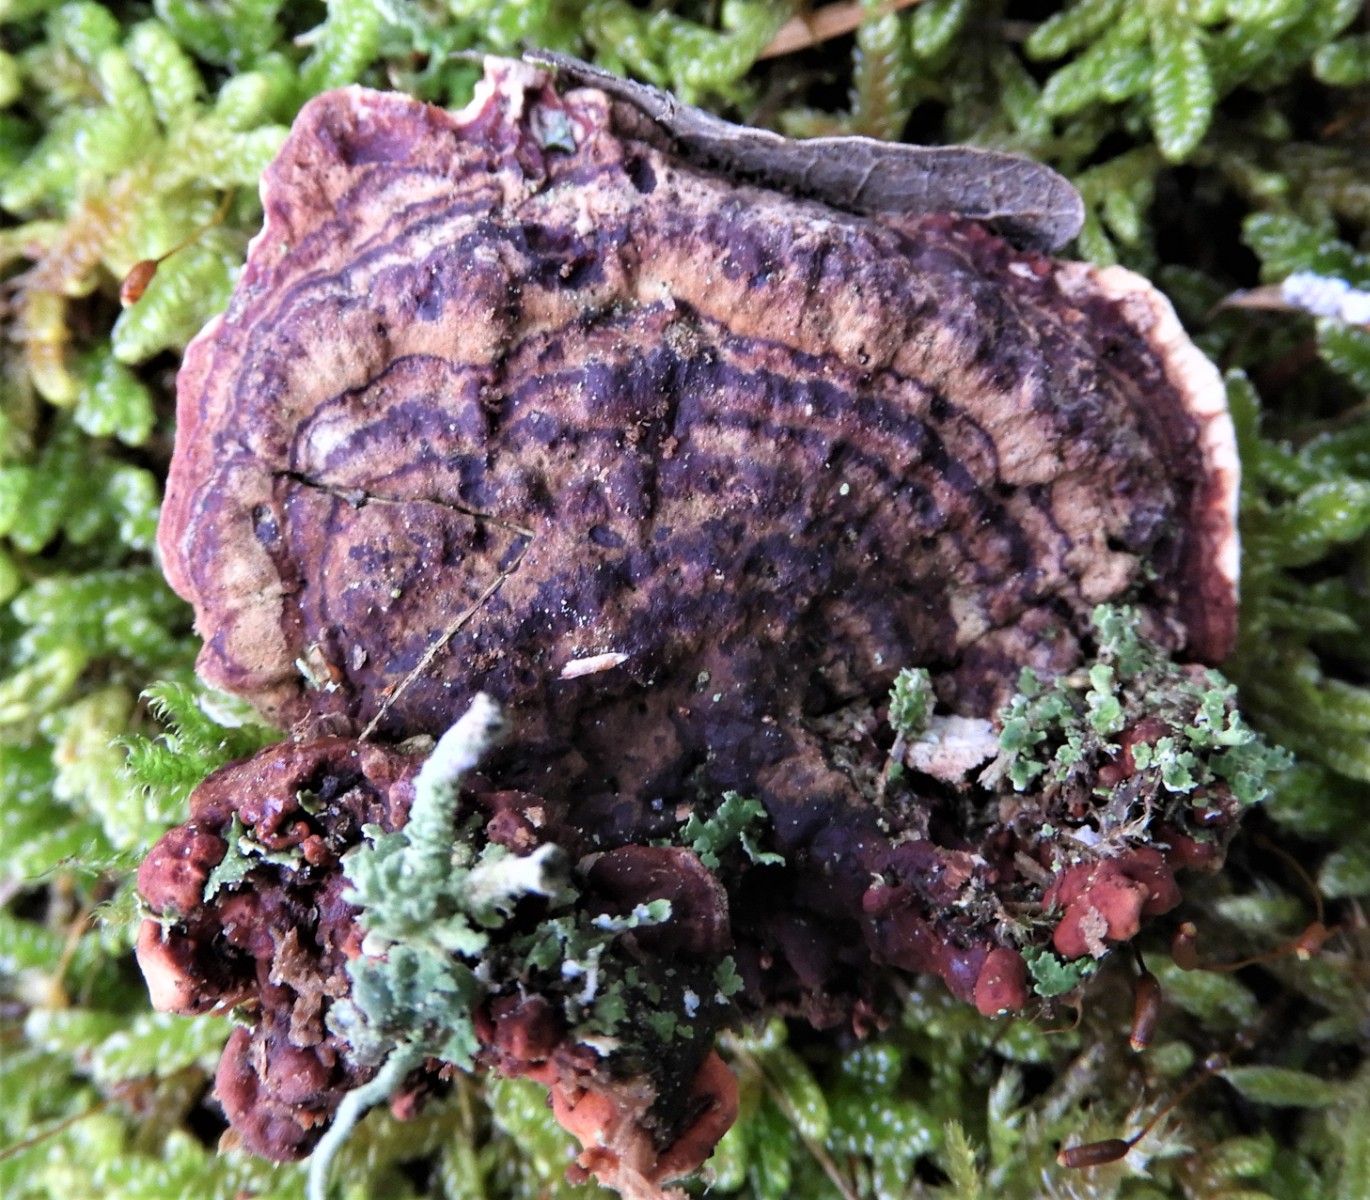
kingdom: Fungi
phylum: Basidiomycota
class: Agaricomycetes
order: Russulales
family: Bondarzewiaceae
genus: Heterobasidion
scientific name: Heterobasidion
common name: rodfordærver
